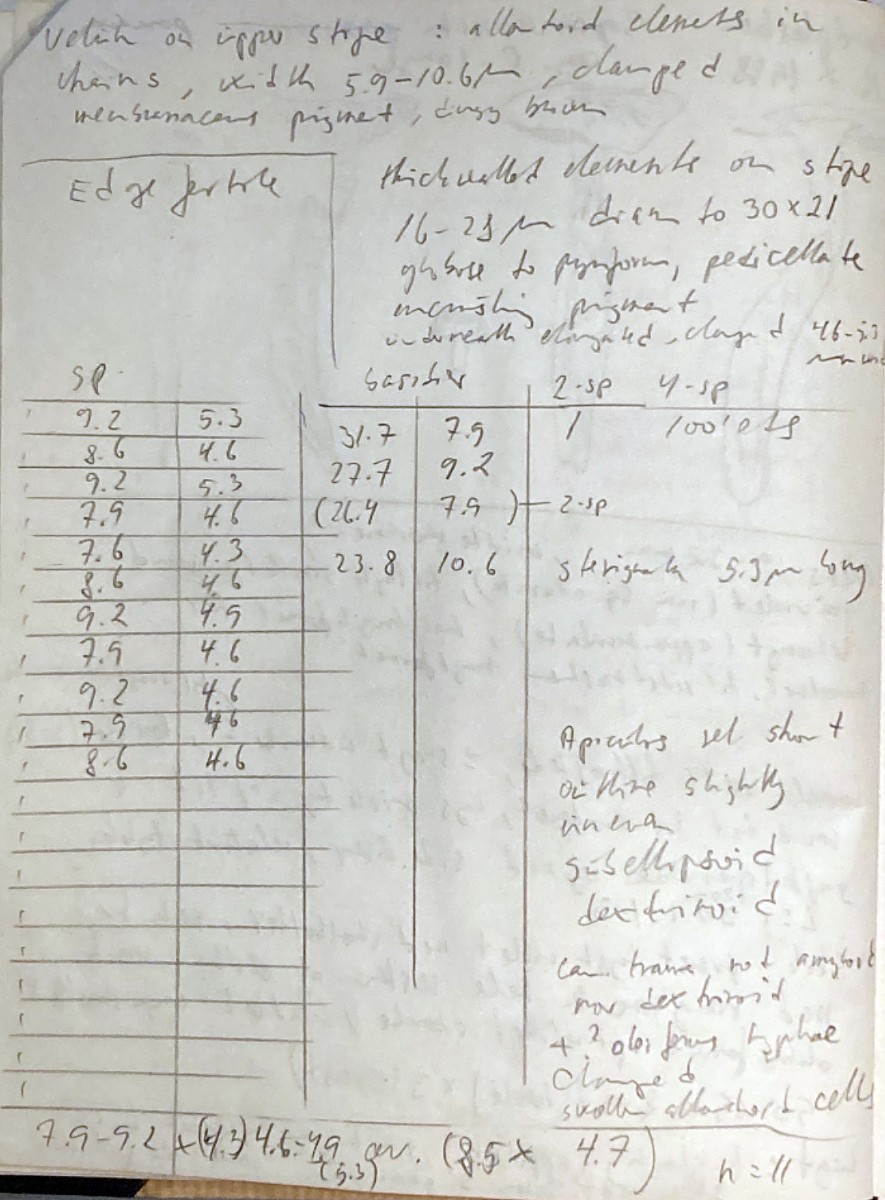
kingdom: Fungi
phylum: Basidiomycota
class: Agaricomycetes
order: Agaricales
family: Tricholomataceae
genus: Squamanita
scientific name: Squamanita paradoxa
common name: gulstokket knoldfod
